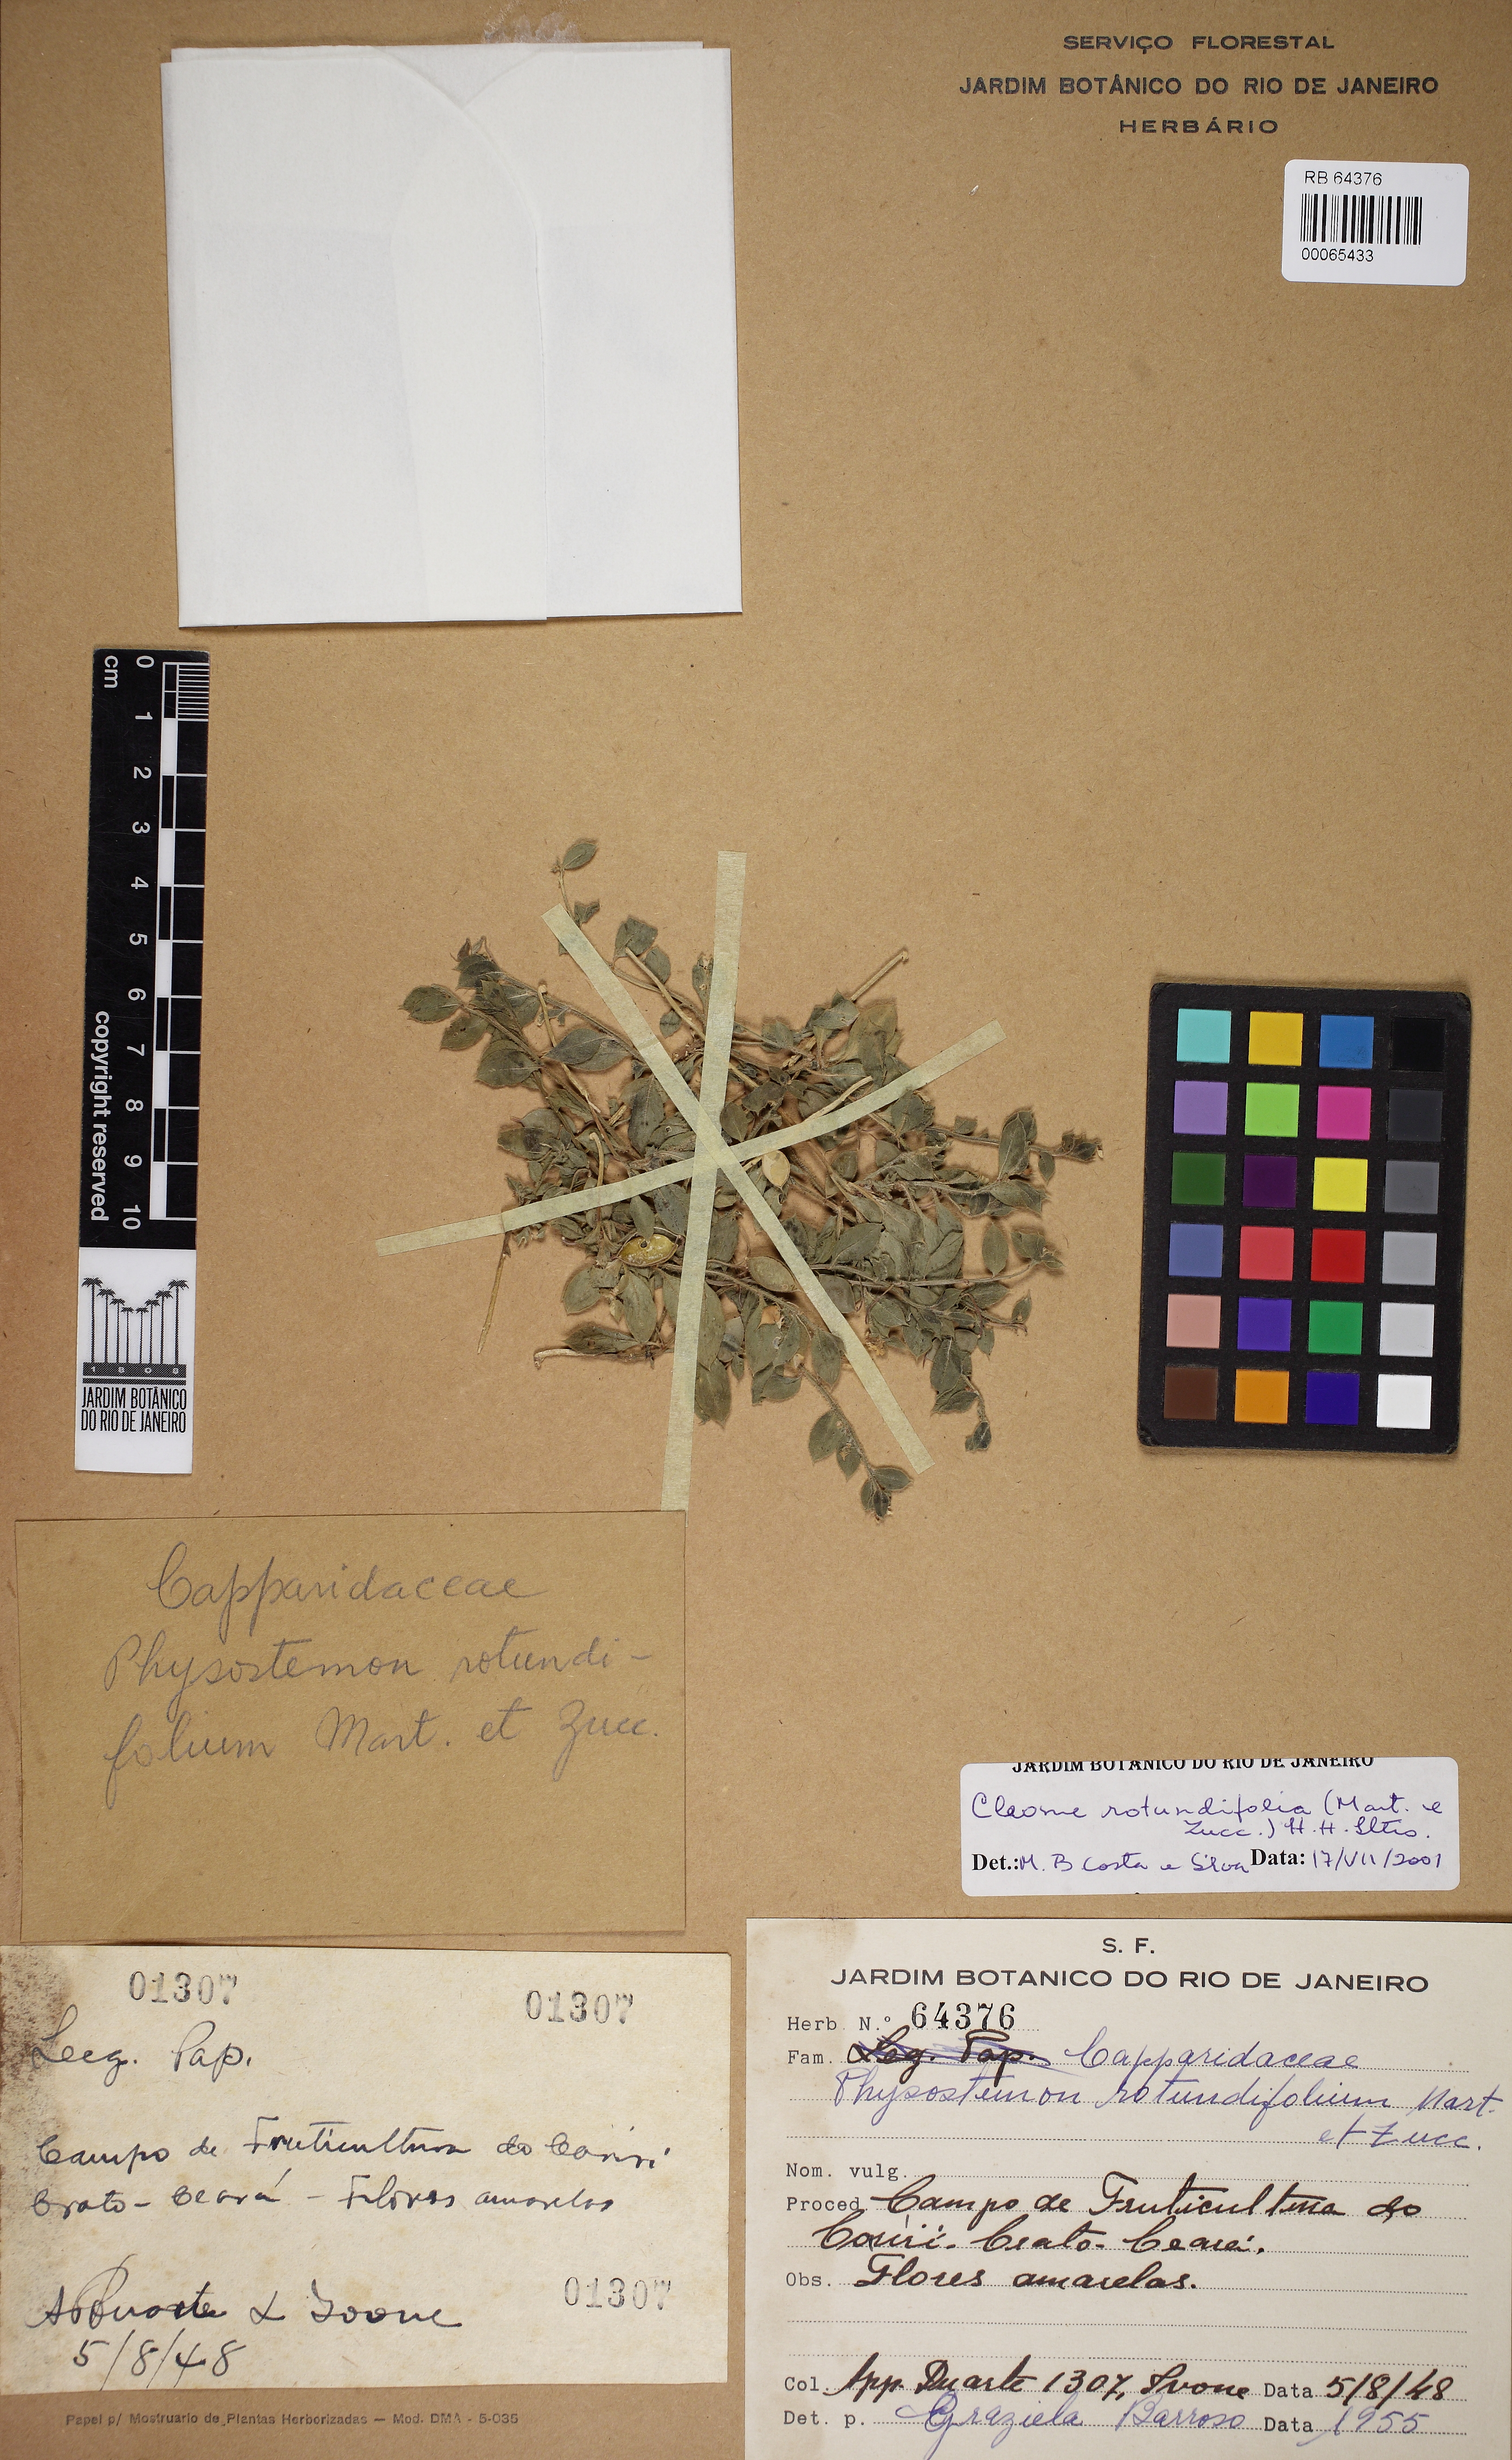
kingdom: Plantae
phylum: Tracheophyta
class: Magnoliopsida
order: Brassicales
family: Cleomaceae
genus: Physostemon
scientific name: Physostemon rotundifolius
